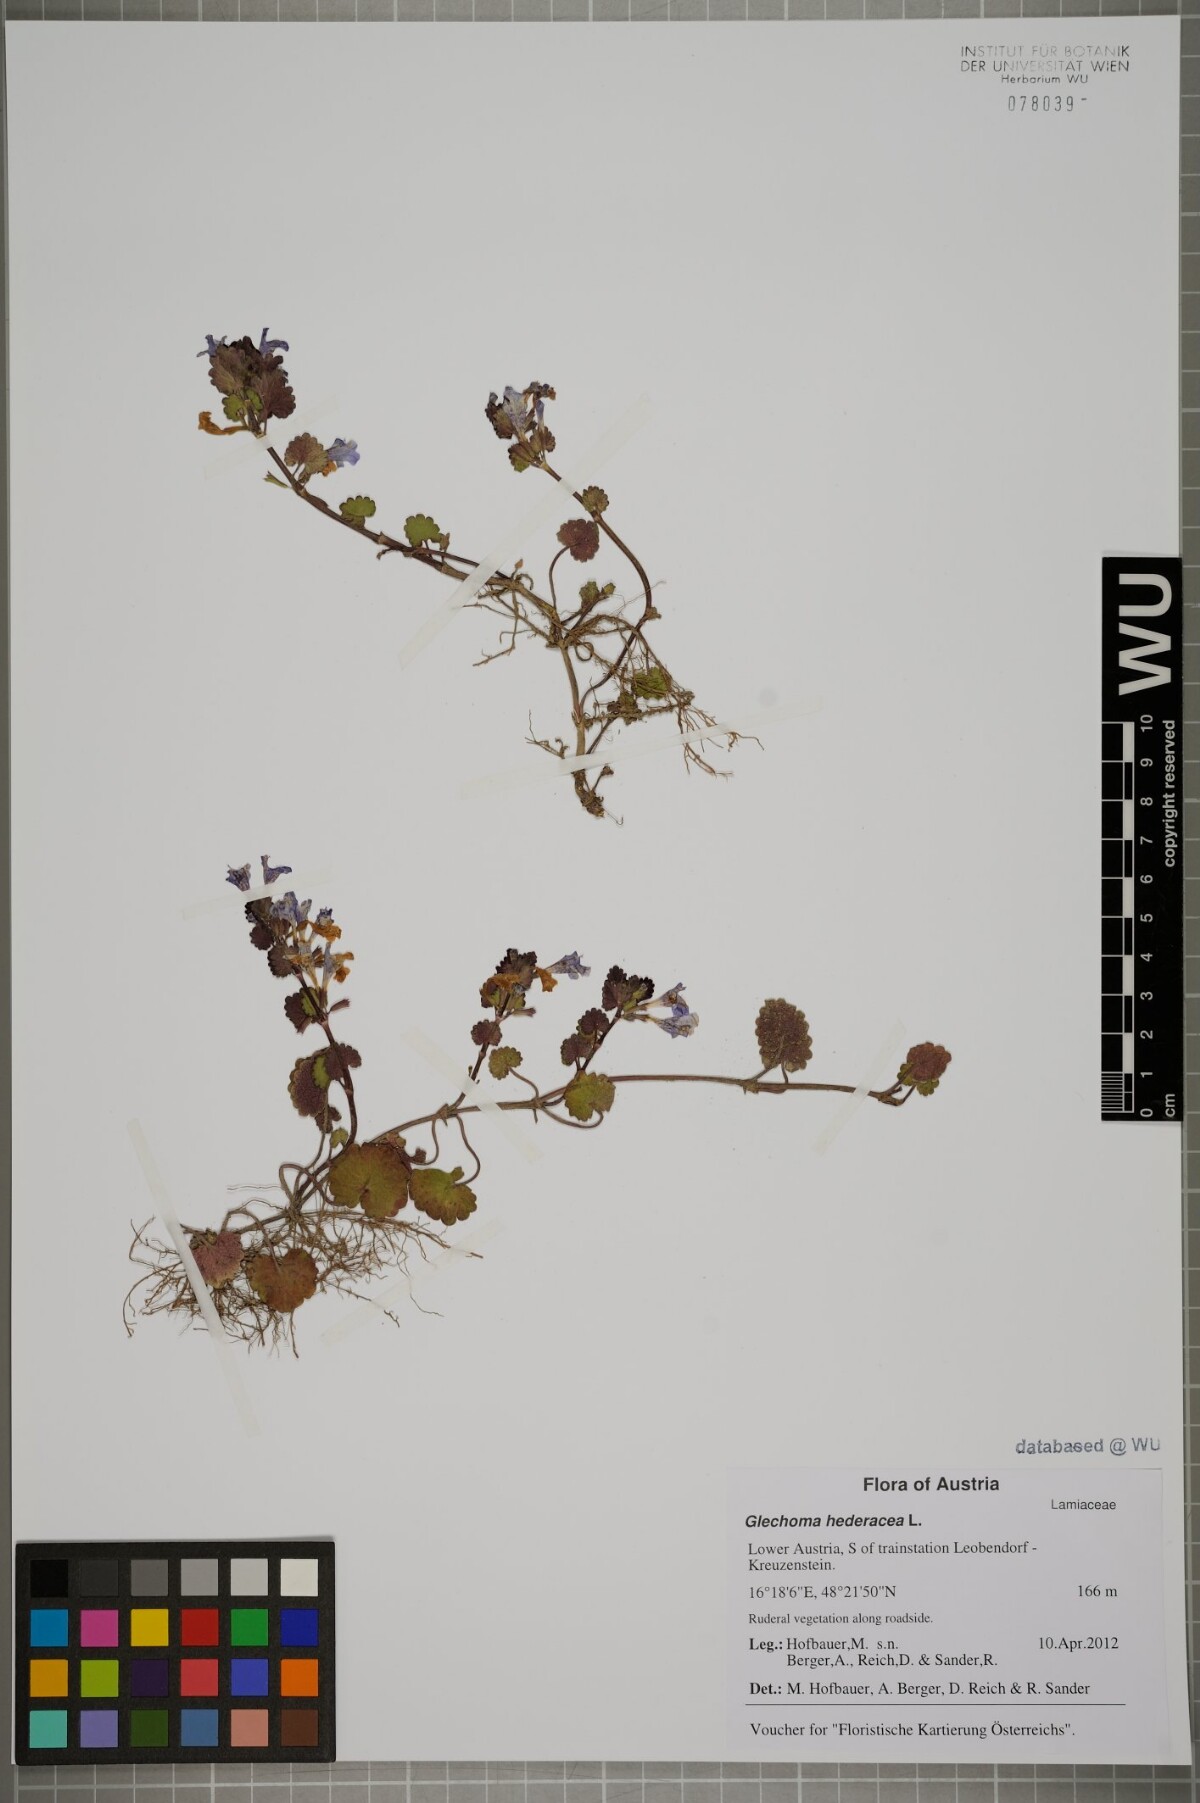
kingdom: Plantae
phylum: Tracheophyta
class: Magnoliopsida
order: Lamiales
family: Lamiaceae
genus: Glechoma
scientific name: Glechoma hederacea
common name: Ground ivy
